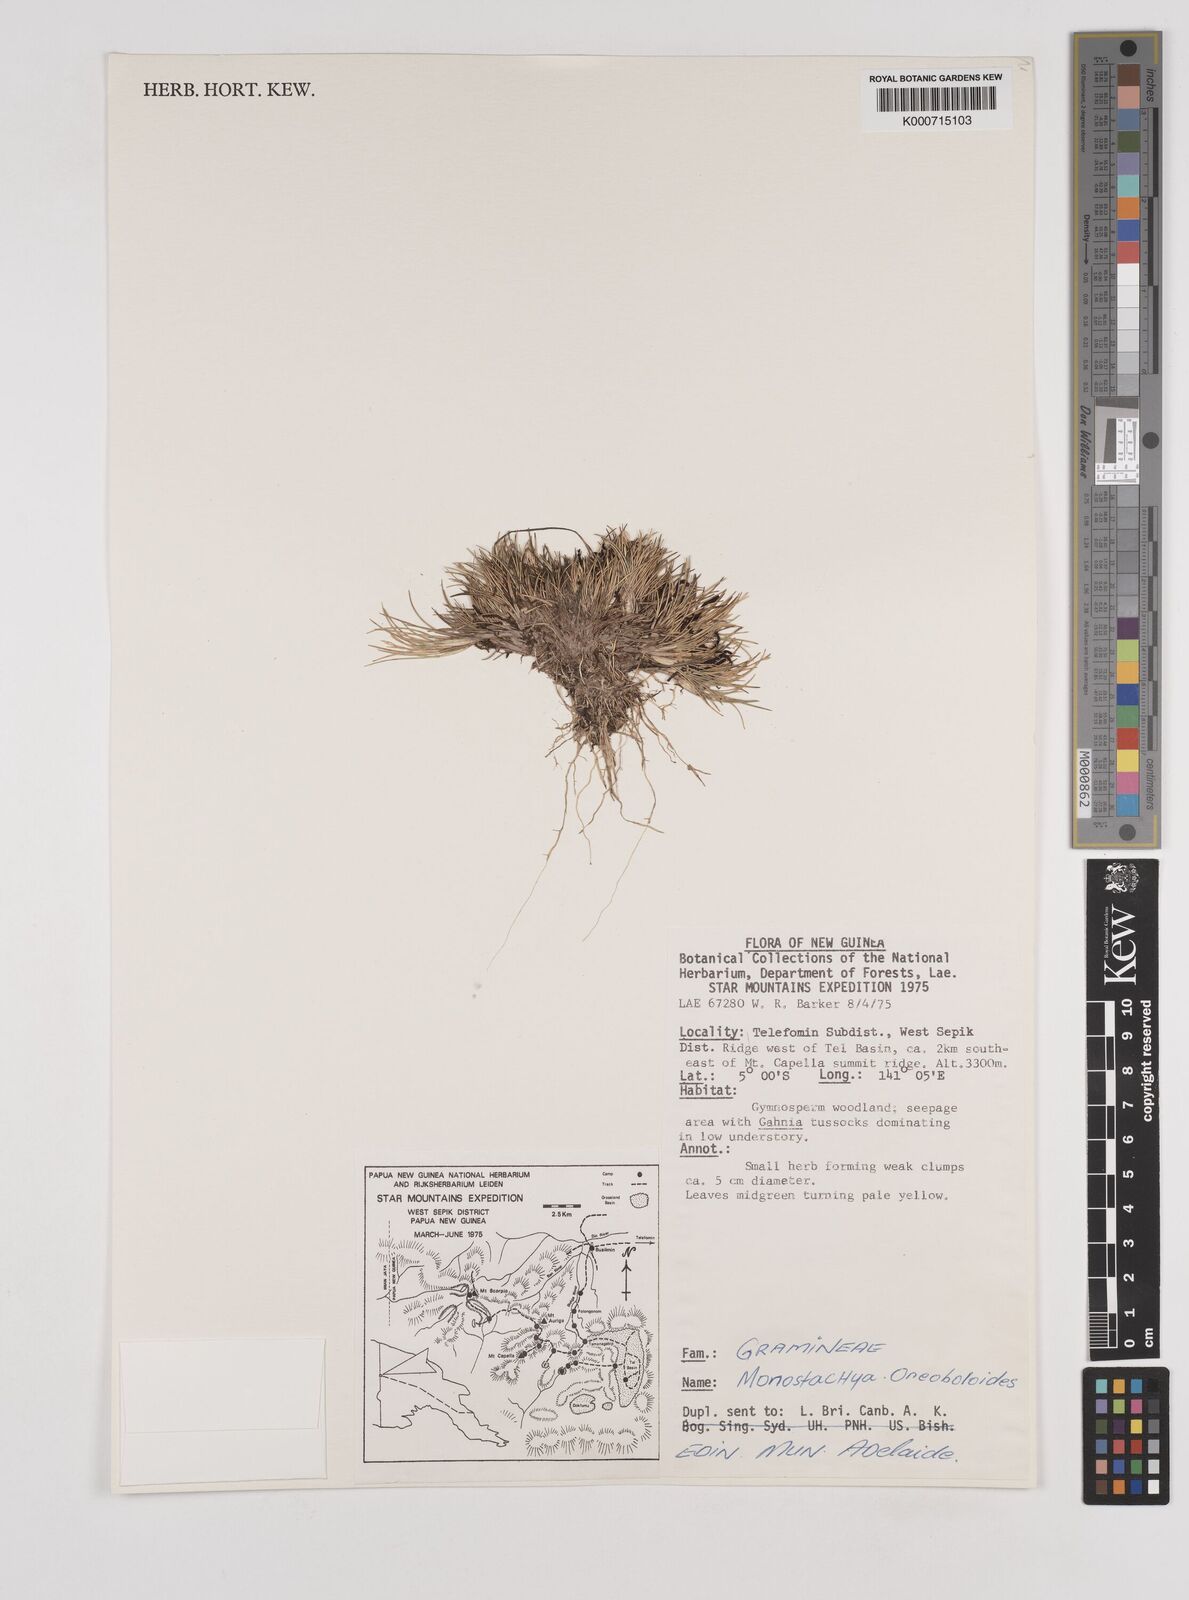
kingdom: Plantae
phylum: Tracheophyta
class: Liliopsida
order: Poales
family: Poaceae
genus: Rytidosperma
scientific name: Rytidosperma oreoboloides
